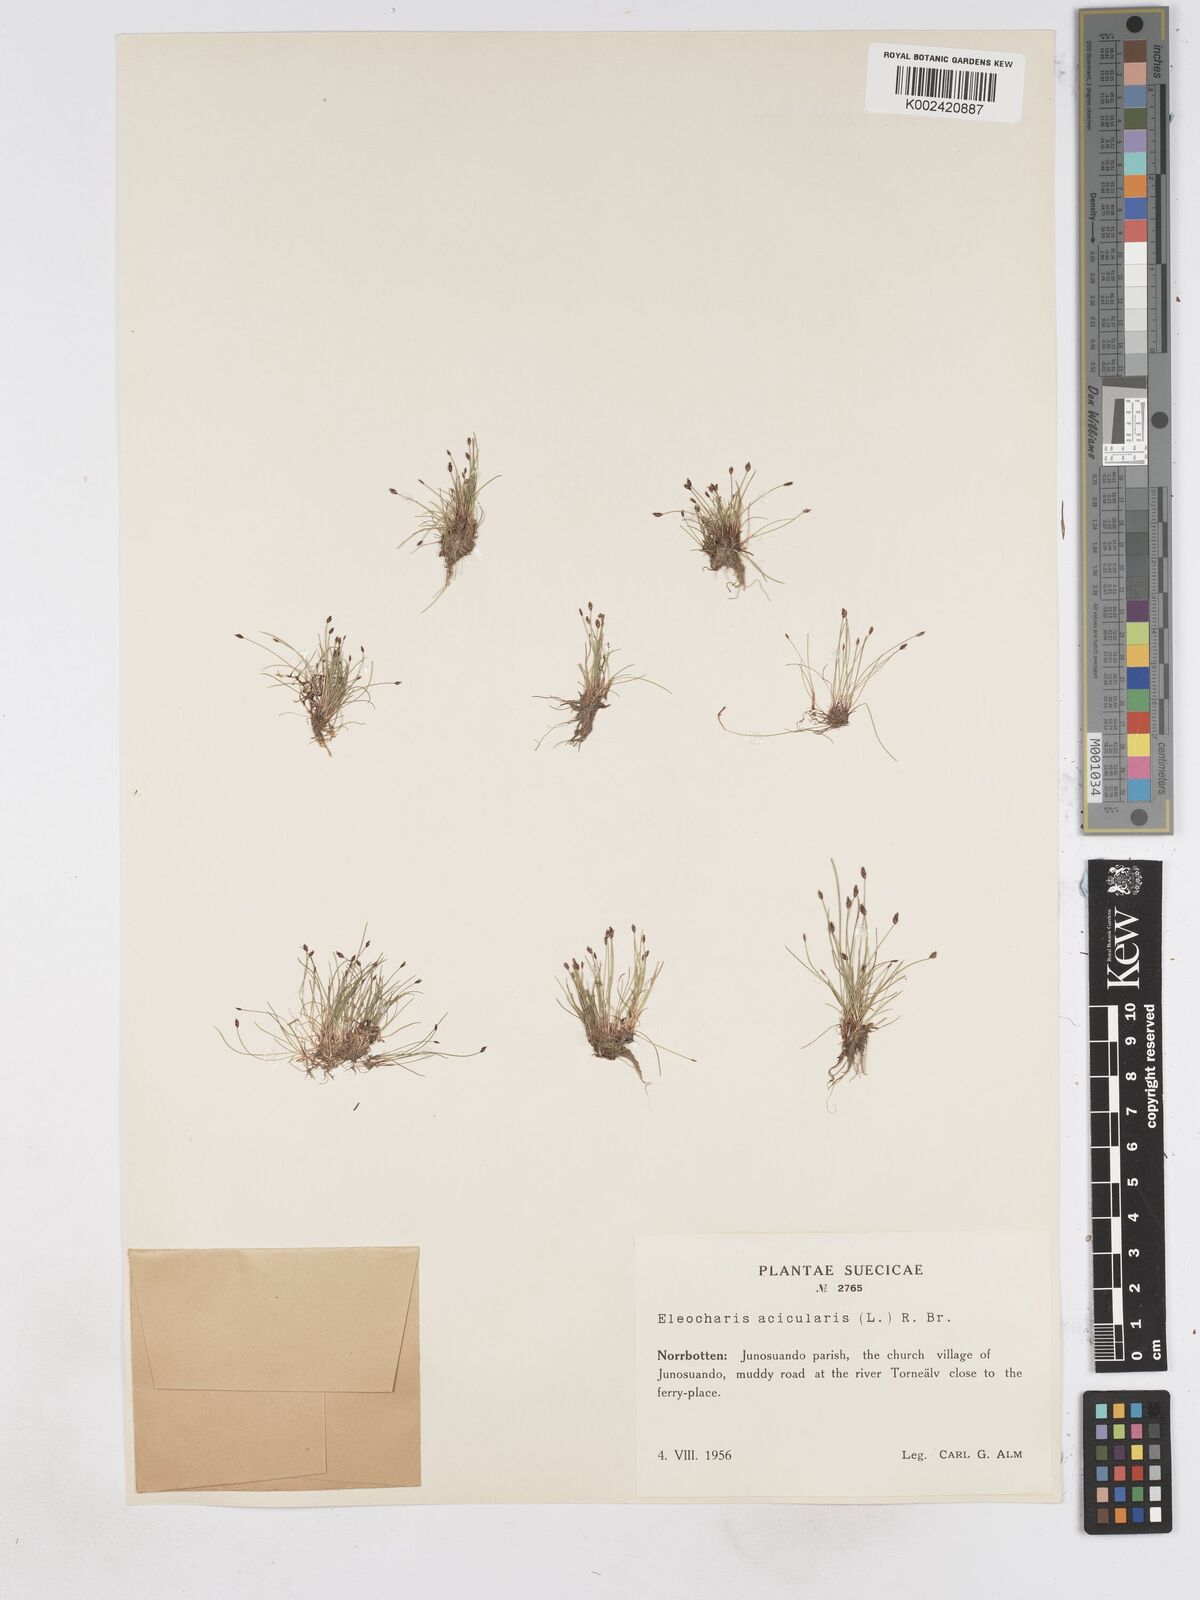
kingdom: Plantae
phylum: Tracheophyta
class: Liliopsida
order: Poales
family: Cyperaceae
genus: Eleocharis
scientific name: Eleocharis acicularis
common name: Needle spike-rush
